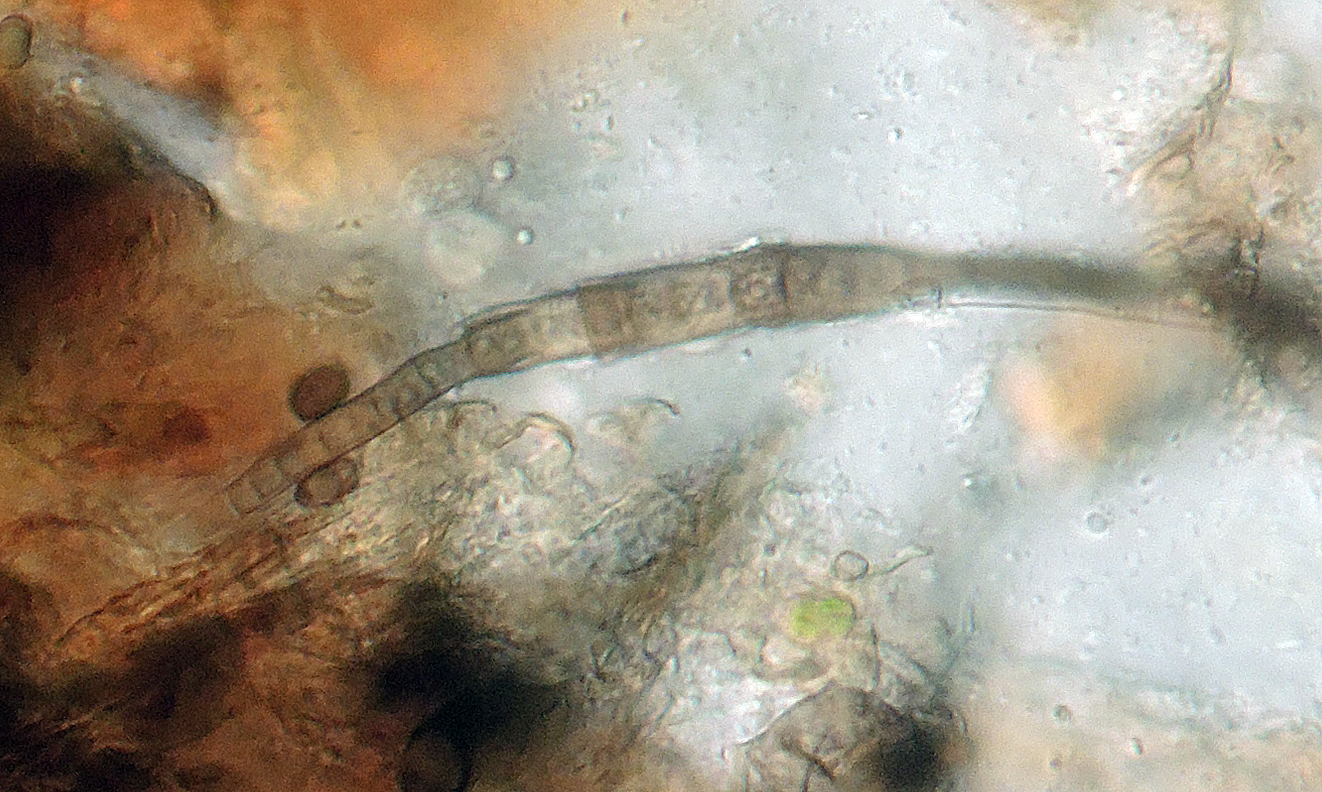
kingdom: Fungi
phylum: Ascomycota
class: Dothideomycetes
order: Pleosporales
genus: Sporidesmium
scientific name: Sporidesmium rubi
